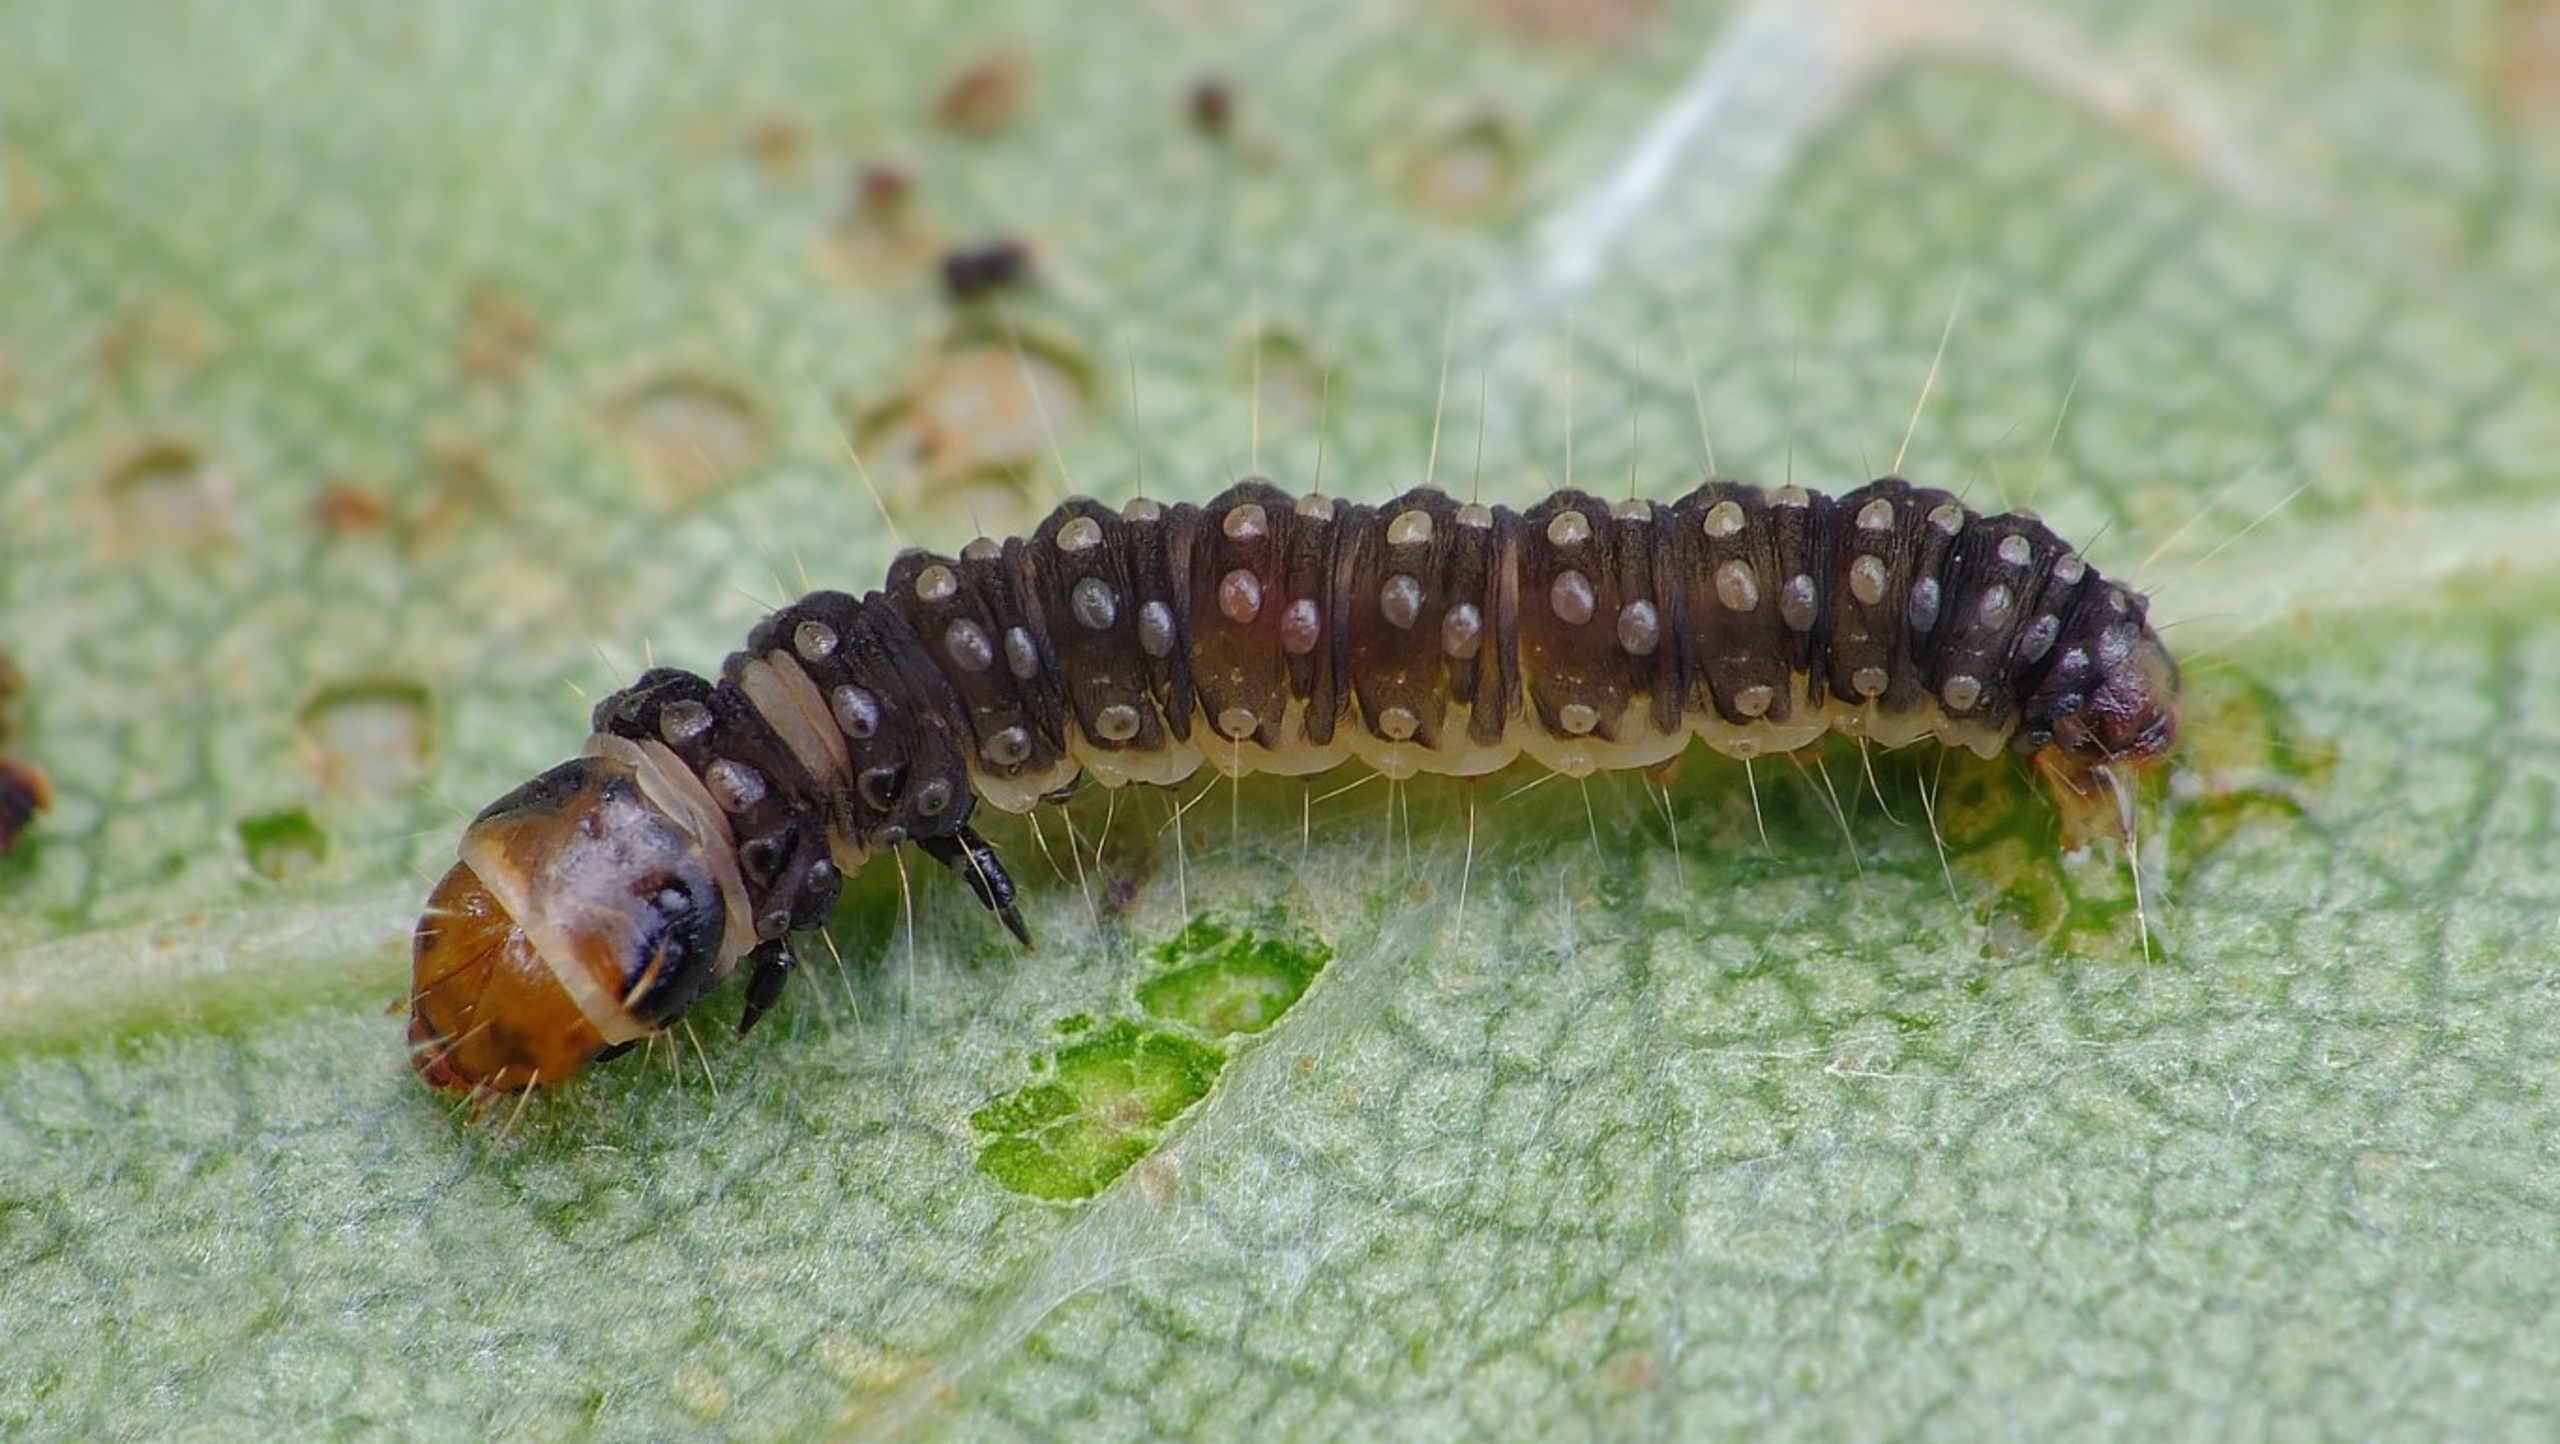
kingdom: Animalia
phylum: Arthropoda
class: Insecta
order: Lepidoptera
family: Tortricidae
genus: Ancylis
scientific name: Ancylis upupana
